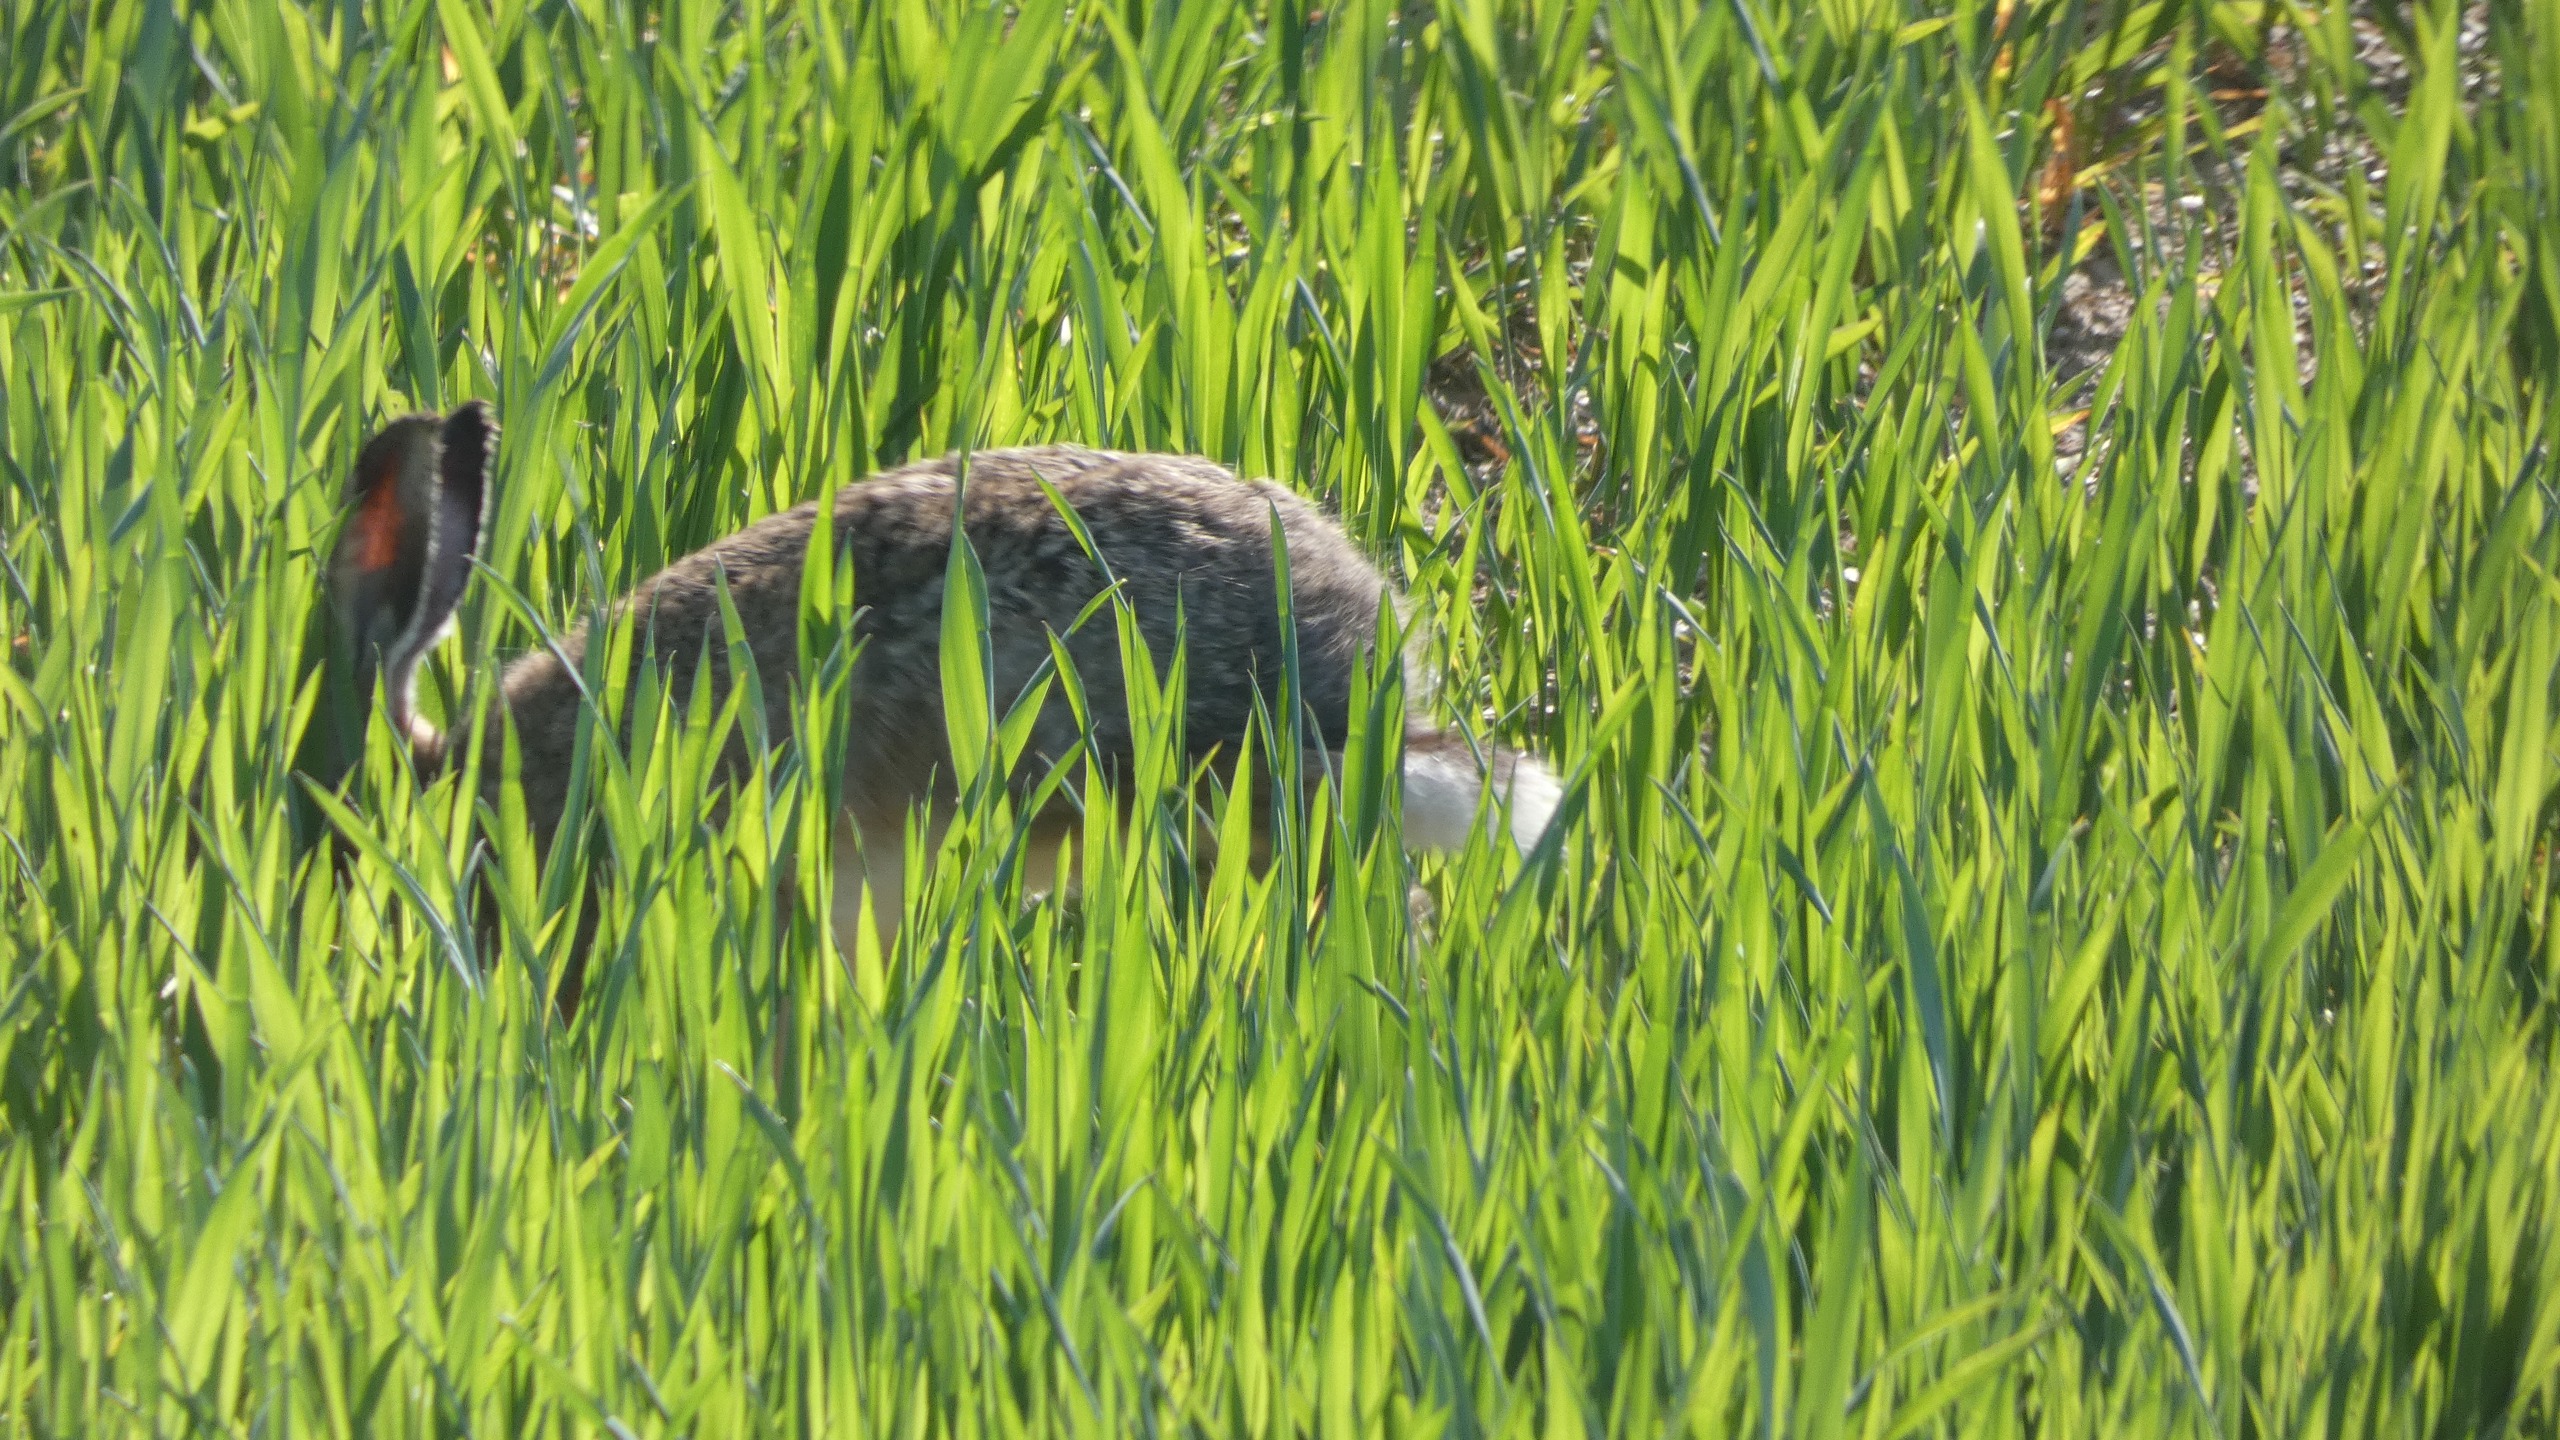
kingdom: Animalia
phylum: Chordata
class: Mammalia
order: Lagomorpha
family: Leporidae
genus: Lepus
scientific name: Lepus europaeus
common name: Hare
